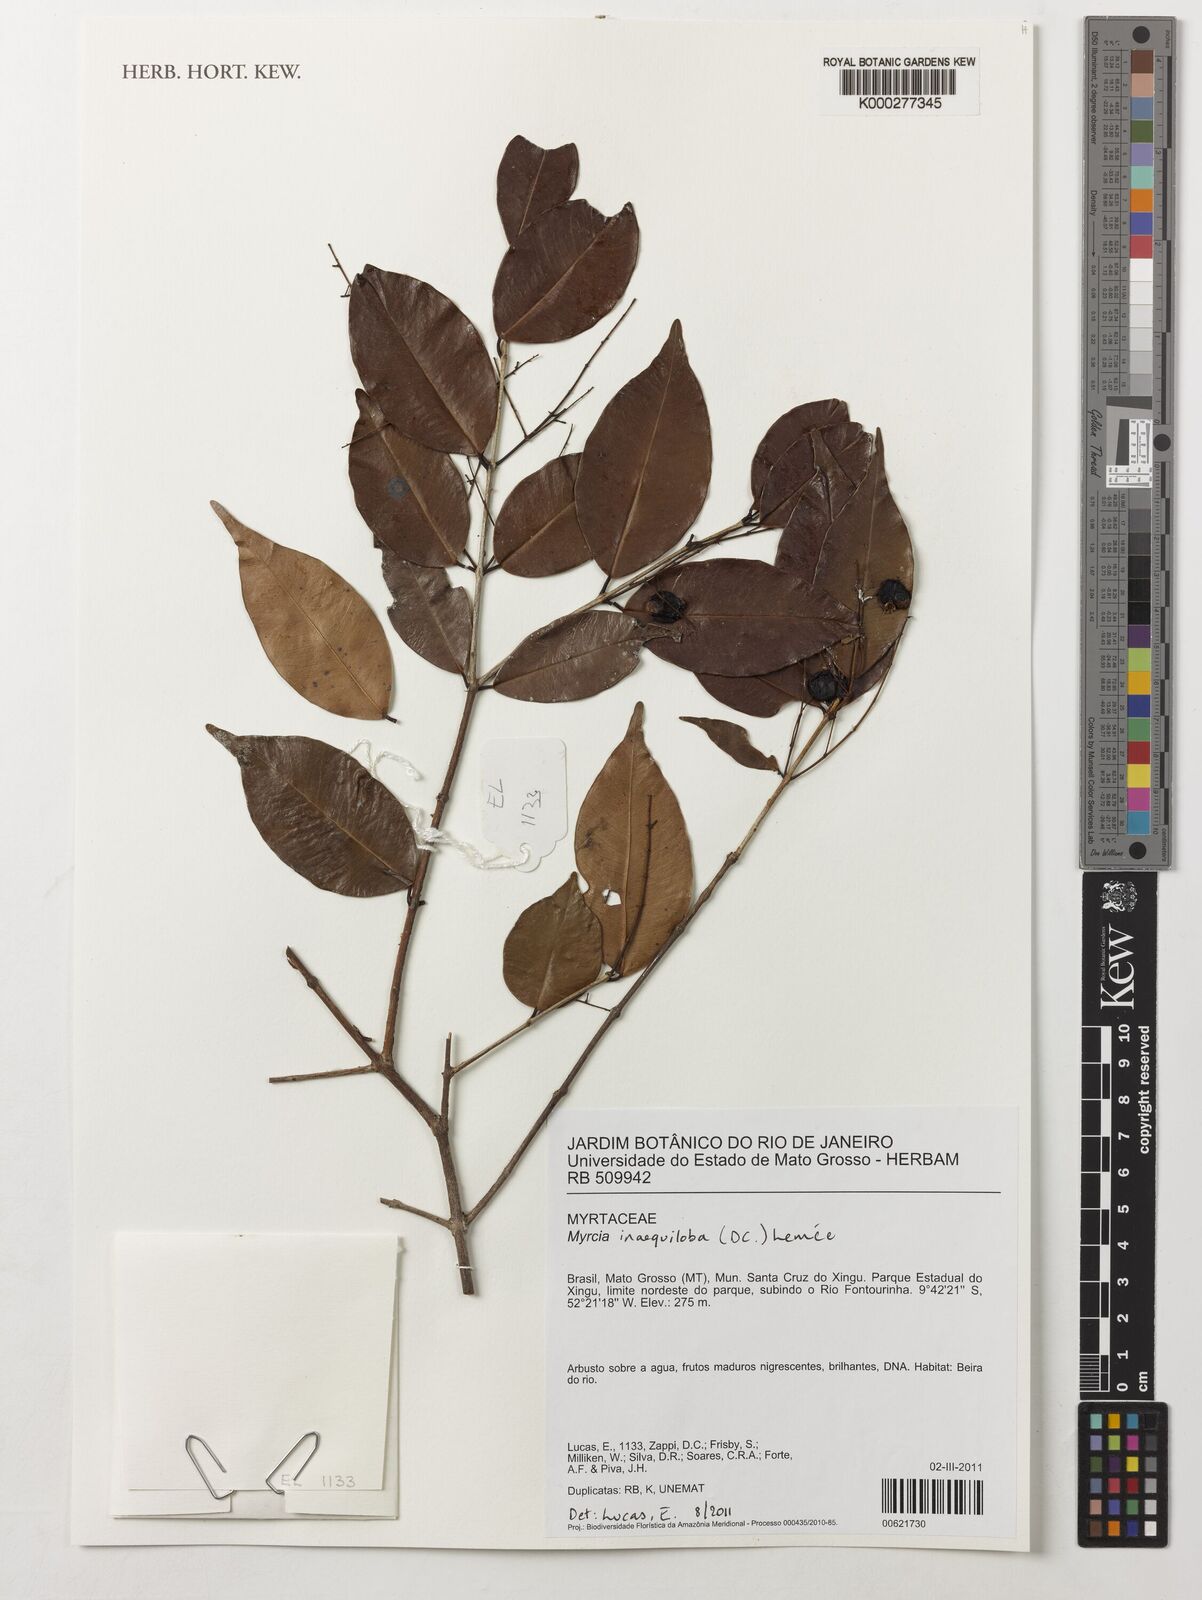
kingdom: Plantae
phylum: Tracheophyta
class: Magnoliopsida
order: Myrtales
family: Myrtaceae
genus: Myrcia
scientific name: Myrcia inaequiloba
